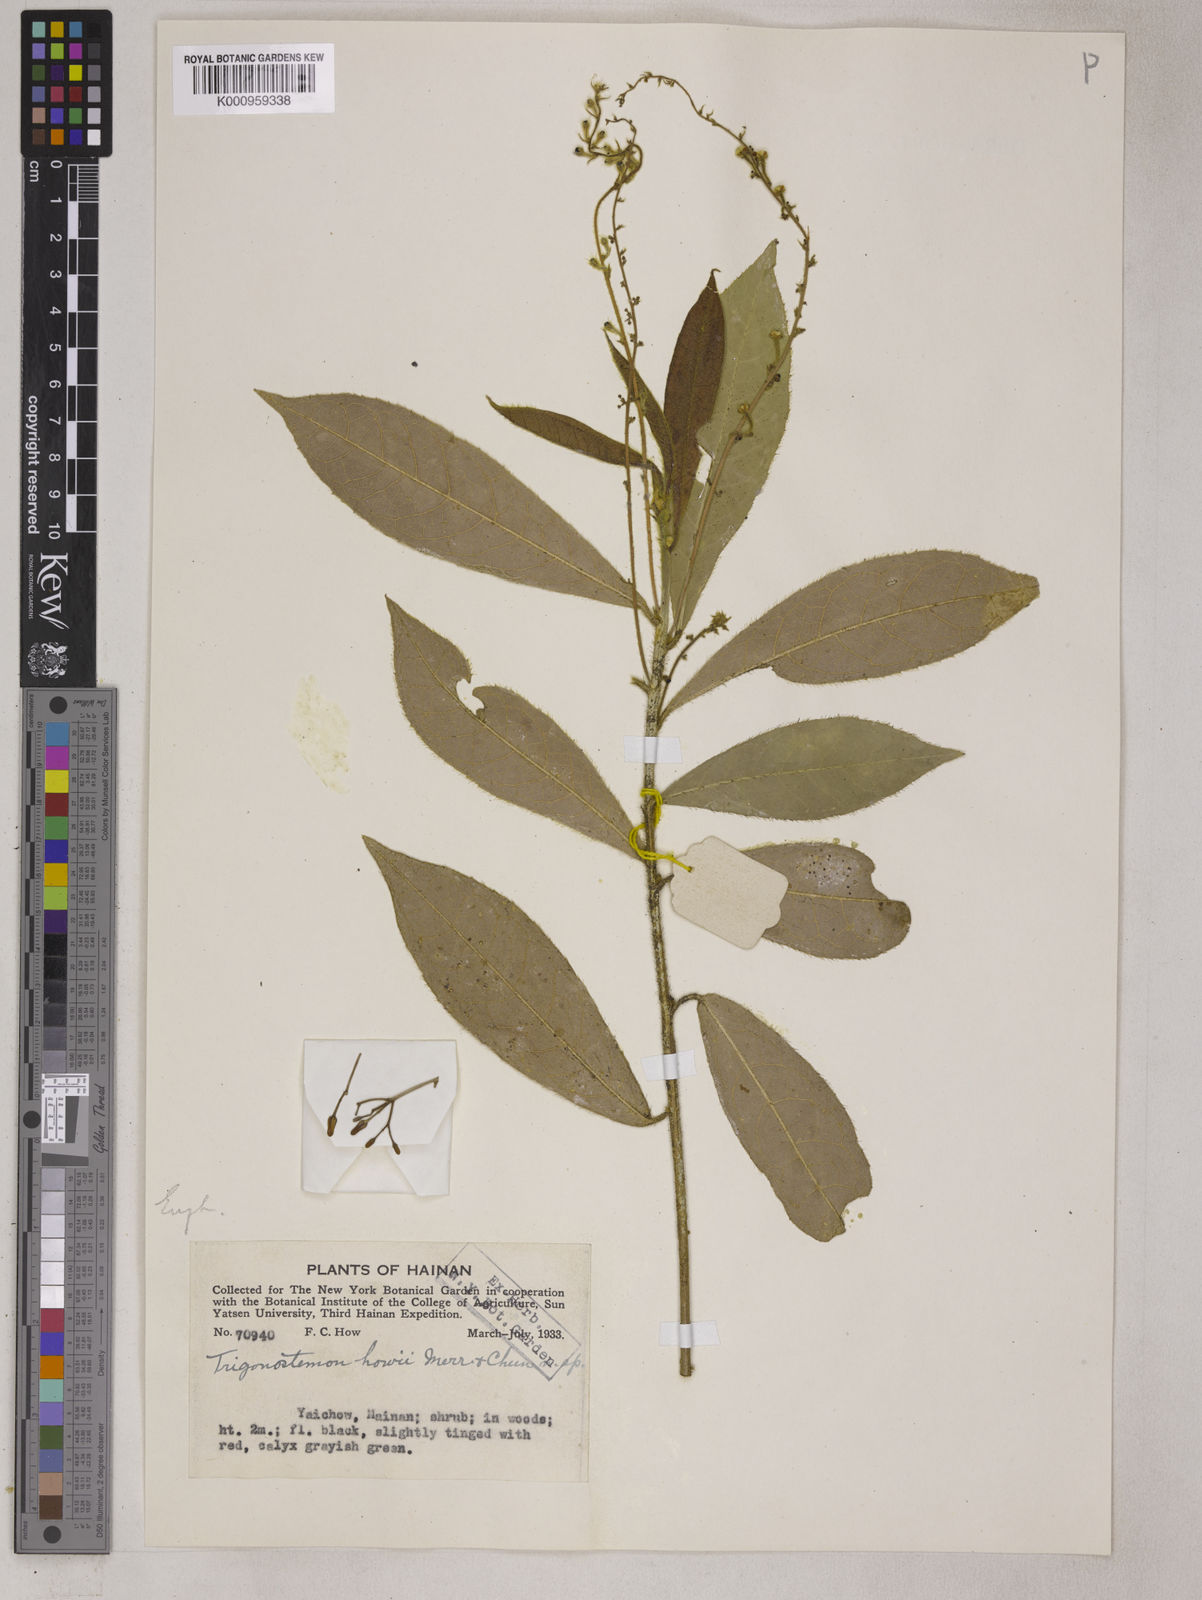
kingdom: Plantae
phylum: Tracheophyta
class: Magnoliopsida
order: Malpighiales
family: Euphorbiaceae
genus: Trigonostemon
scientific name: Trigonostemon longifolius
